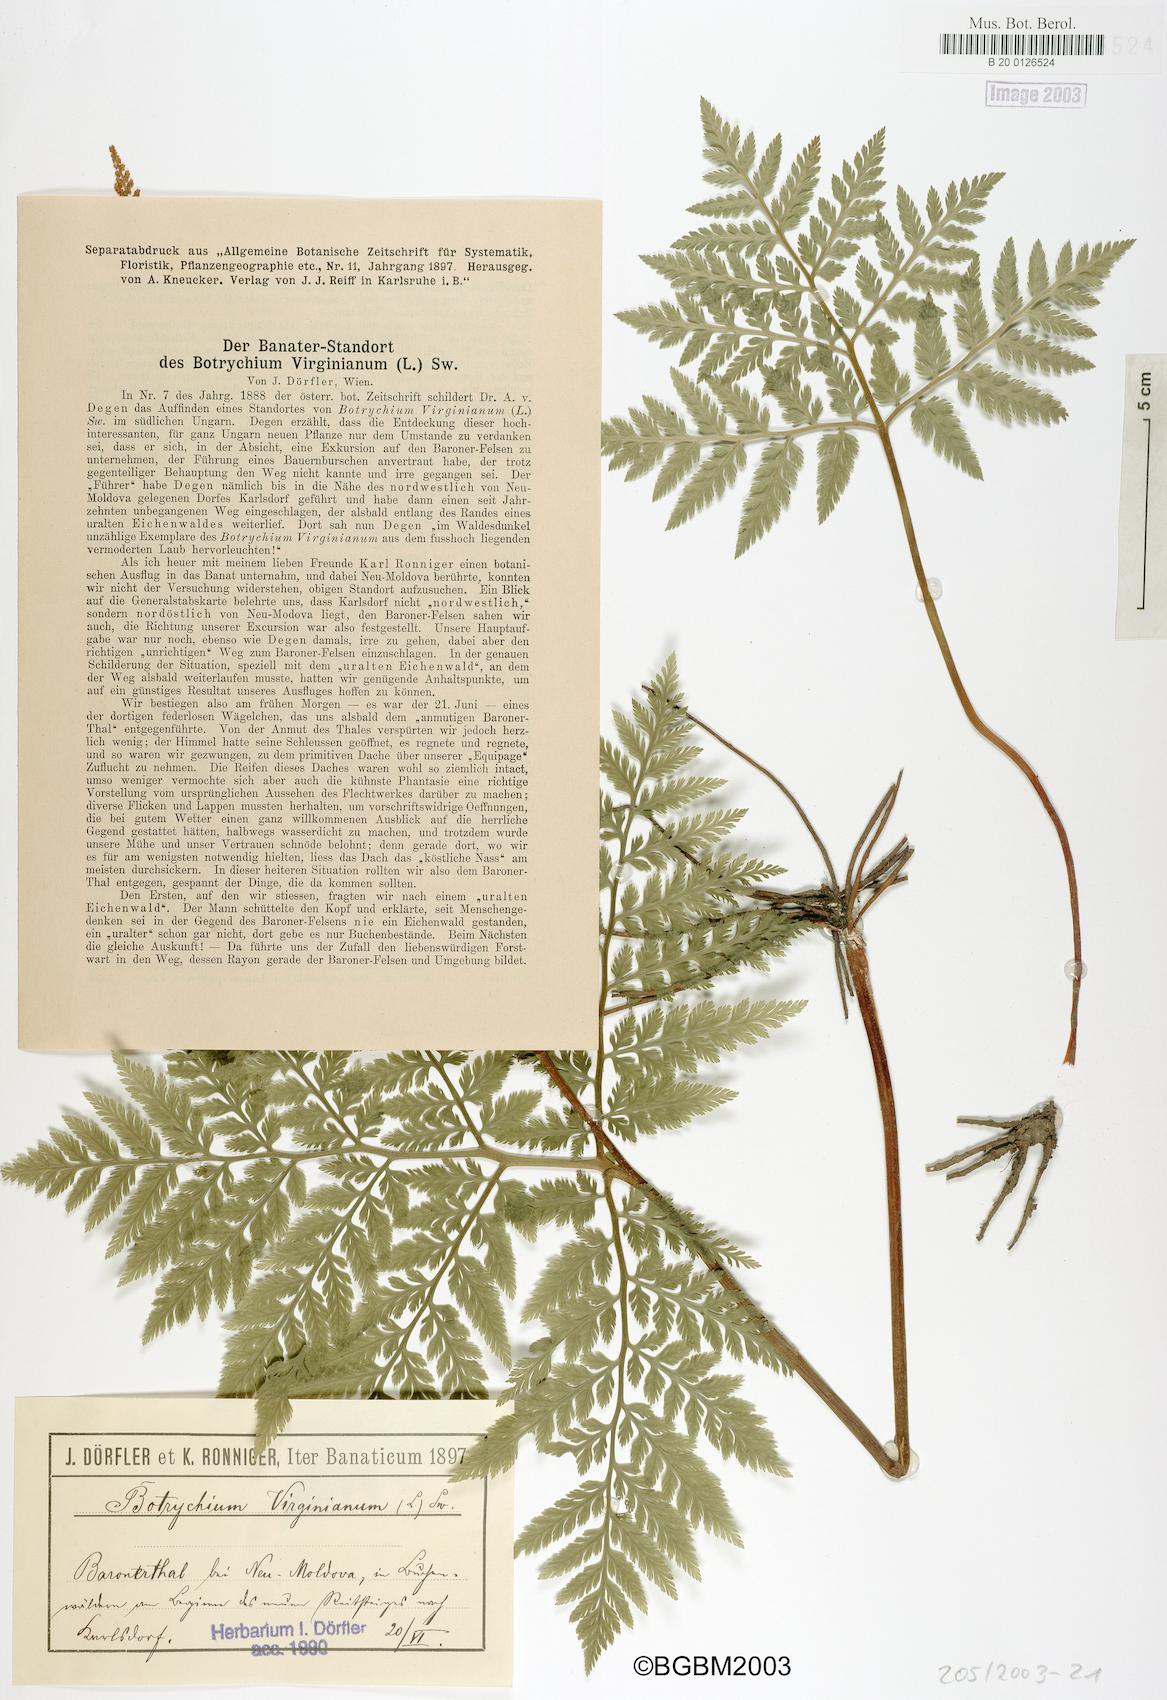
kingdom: Plantae
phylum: Tracheophyta
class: Polypodiopsida
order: Ophioglossales
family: Ophioglossaceae
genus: Botrypus
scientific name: Botrypus virginianus
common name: Common grapefern
